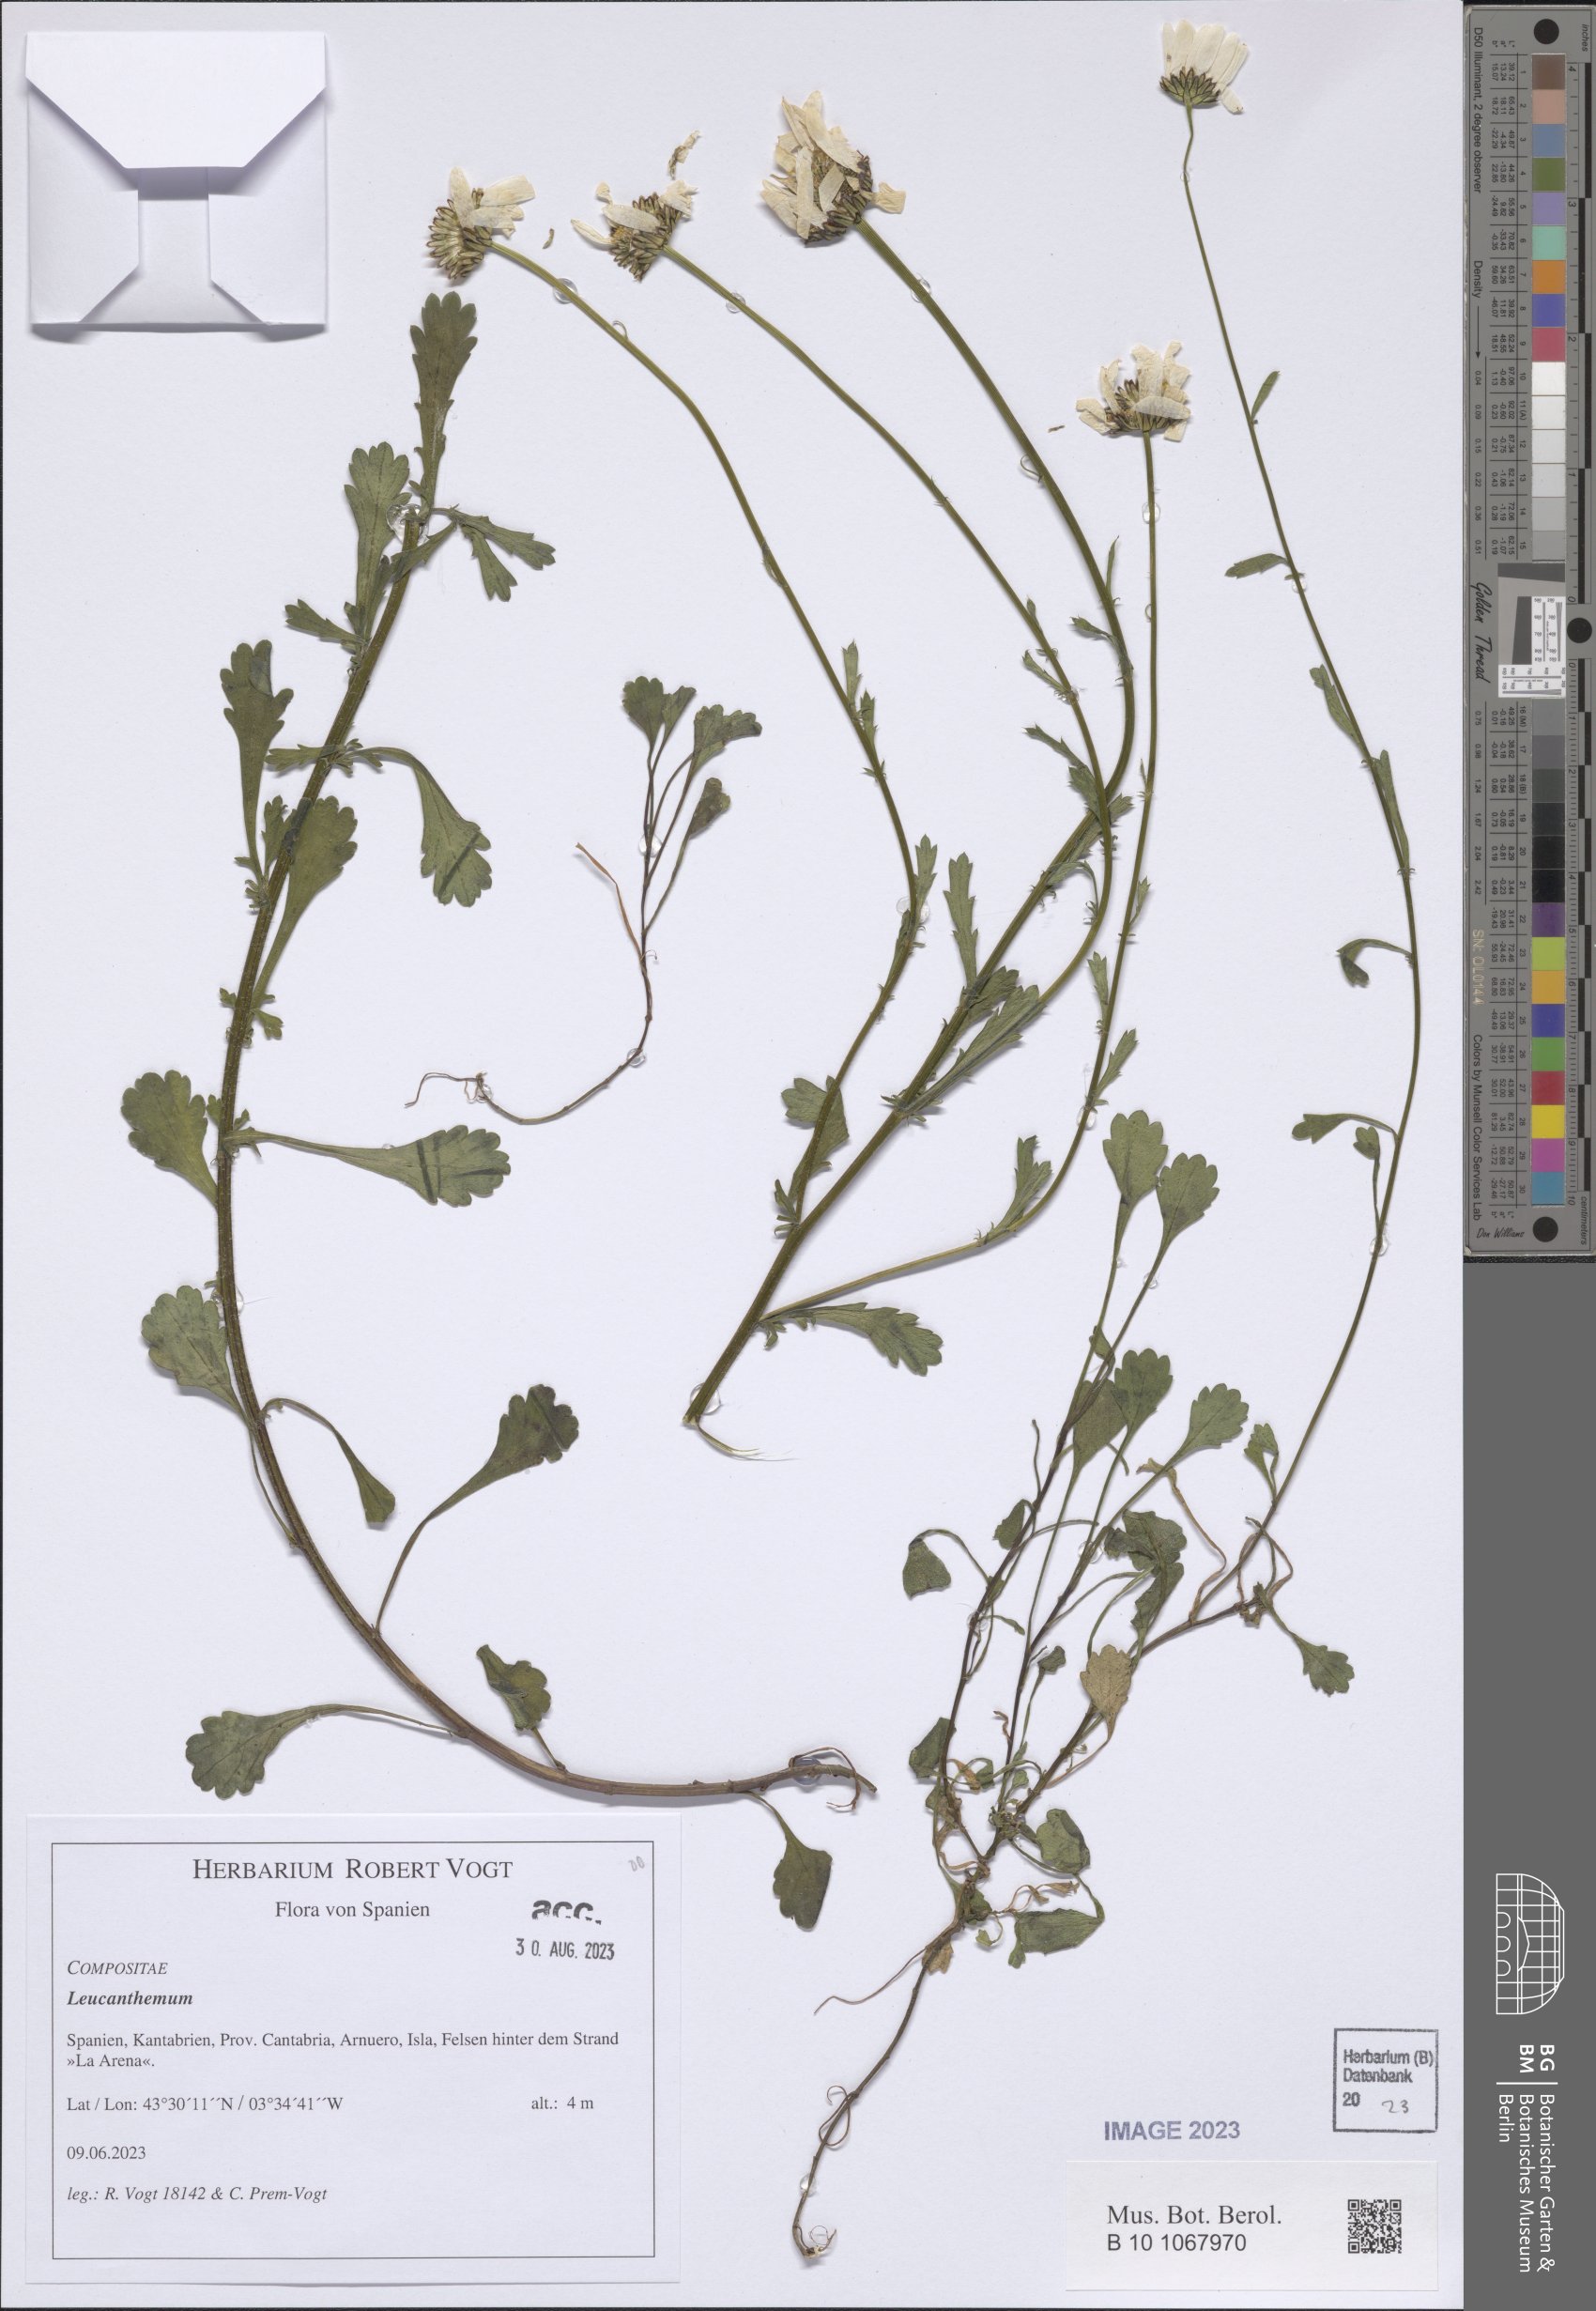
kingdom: Plantae
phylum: Tracheophyta
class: Magnoliopsida
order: Asterales
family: Asteraceae
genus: Leucanthemum
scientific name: Leucanthemum
